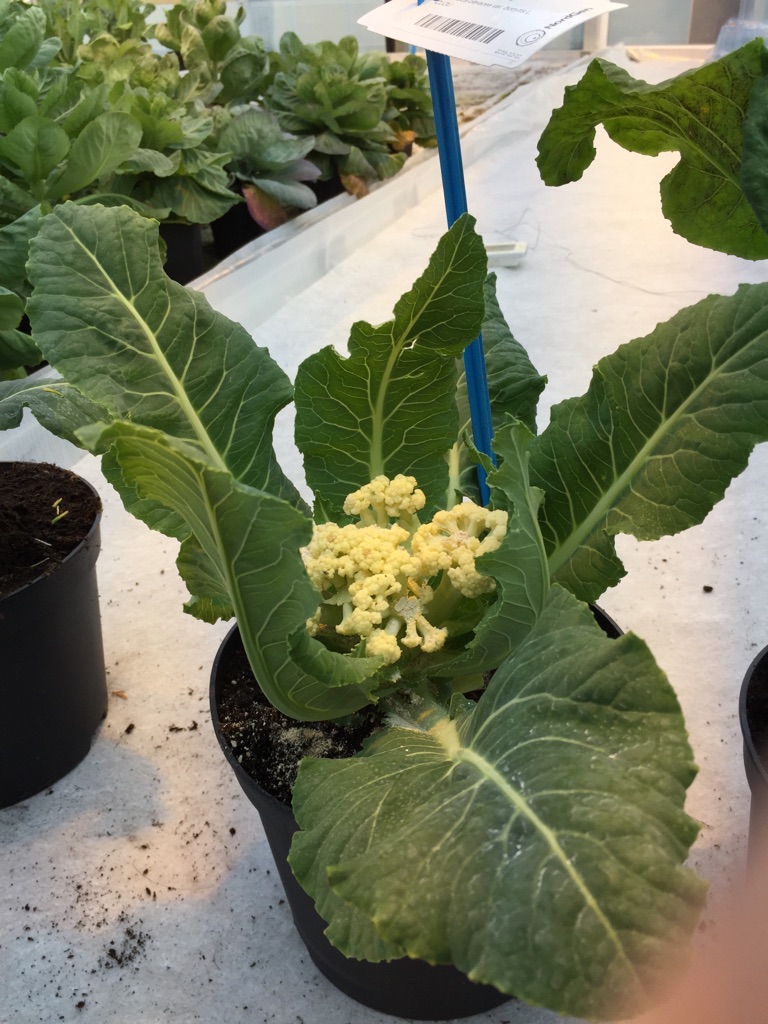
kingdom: Plantae
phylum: Tracheophyta
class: Magnoliopsida
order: Brassicales
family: Brassicaceae
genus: Brassica
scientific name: Brassica oleracea
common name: Cabbage
